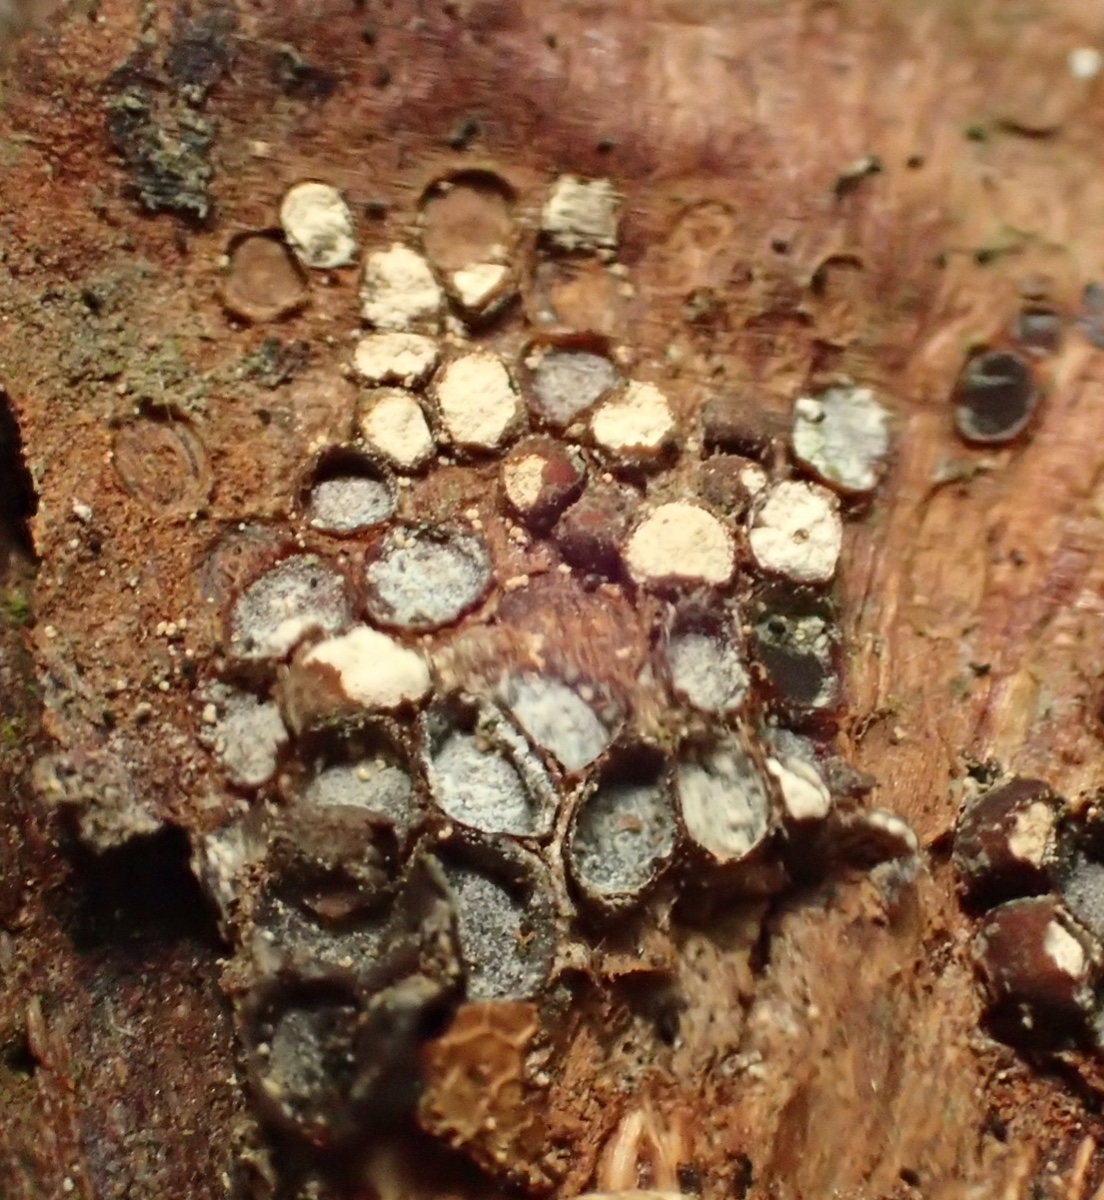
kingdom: Fungi
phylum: Basidiomycota
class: Pucciniomycetes
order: Pucciniales
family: Pucciniastraceae
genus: Thekopsora
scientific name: Thekopsora areolata
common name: grankogle-nålerust
